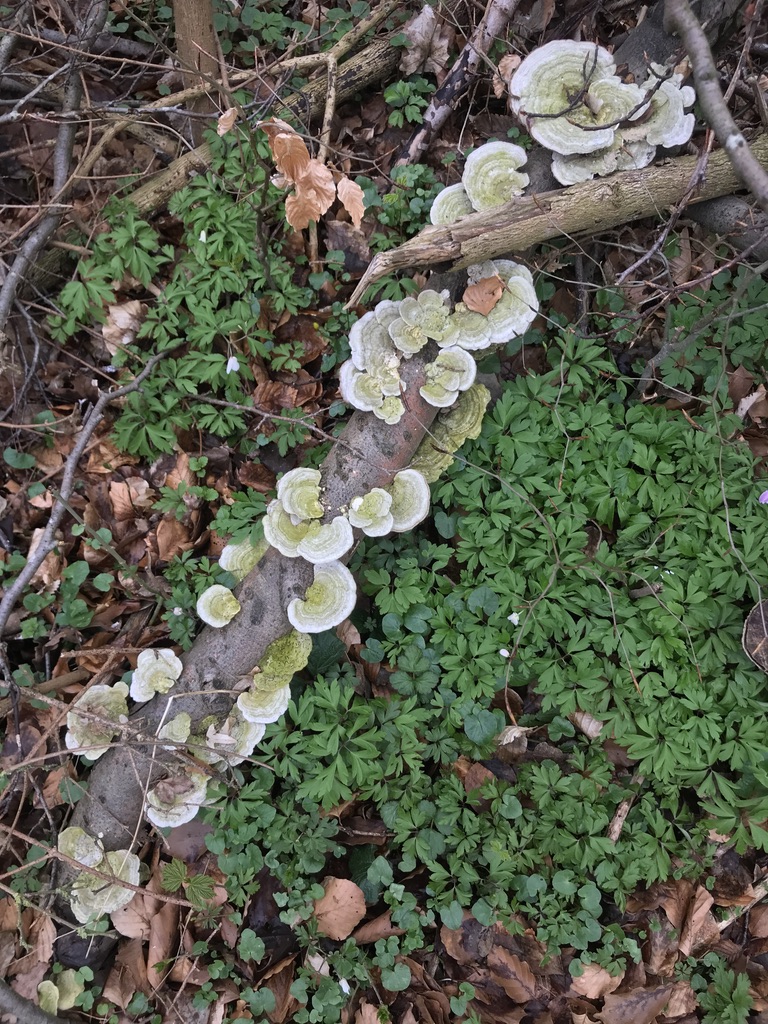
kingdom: Fungi
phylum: Basidiomycota
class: Agaricomycetes
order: Polyporales
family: Polyporaceae
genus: Trametes
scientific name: Trametes hirsuta
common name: håret læderporesvamp
